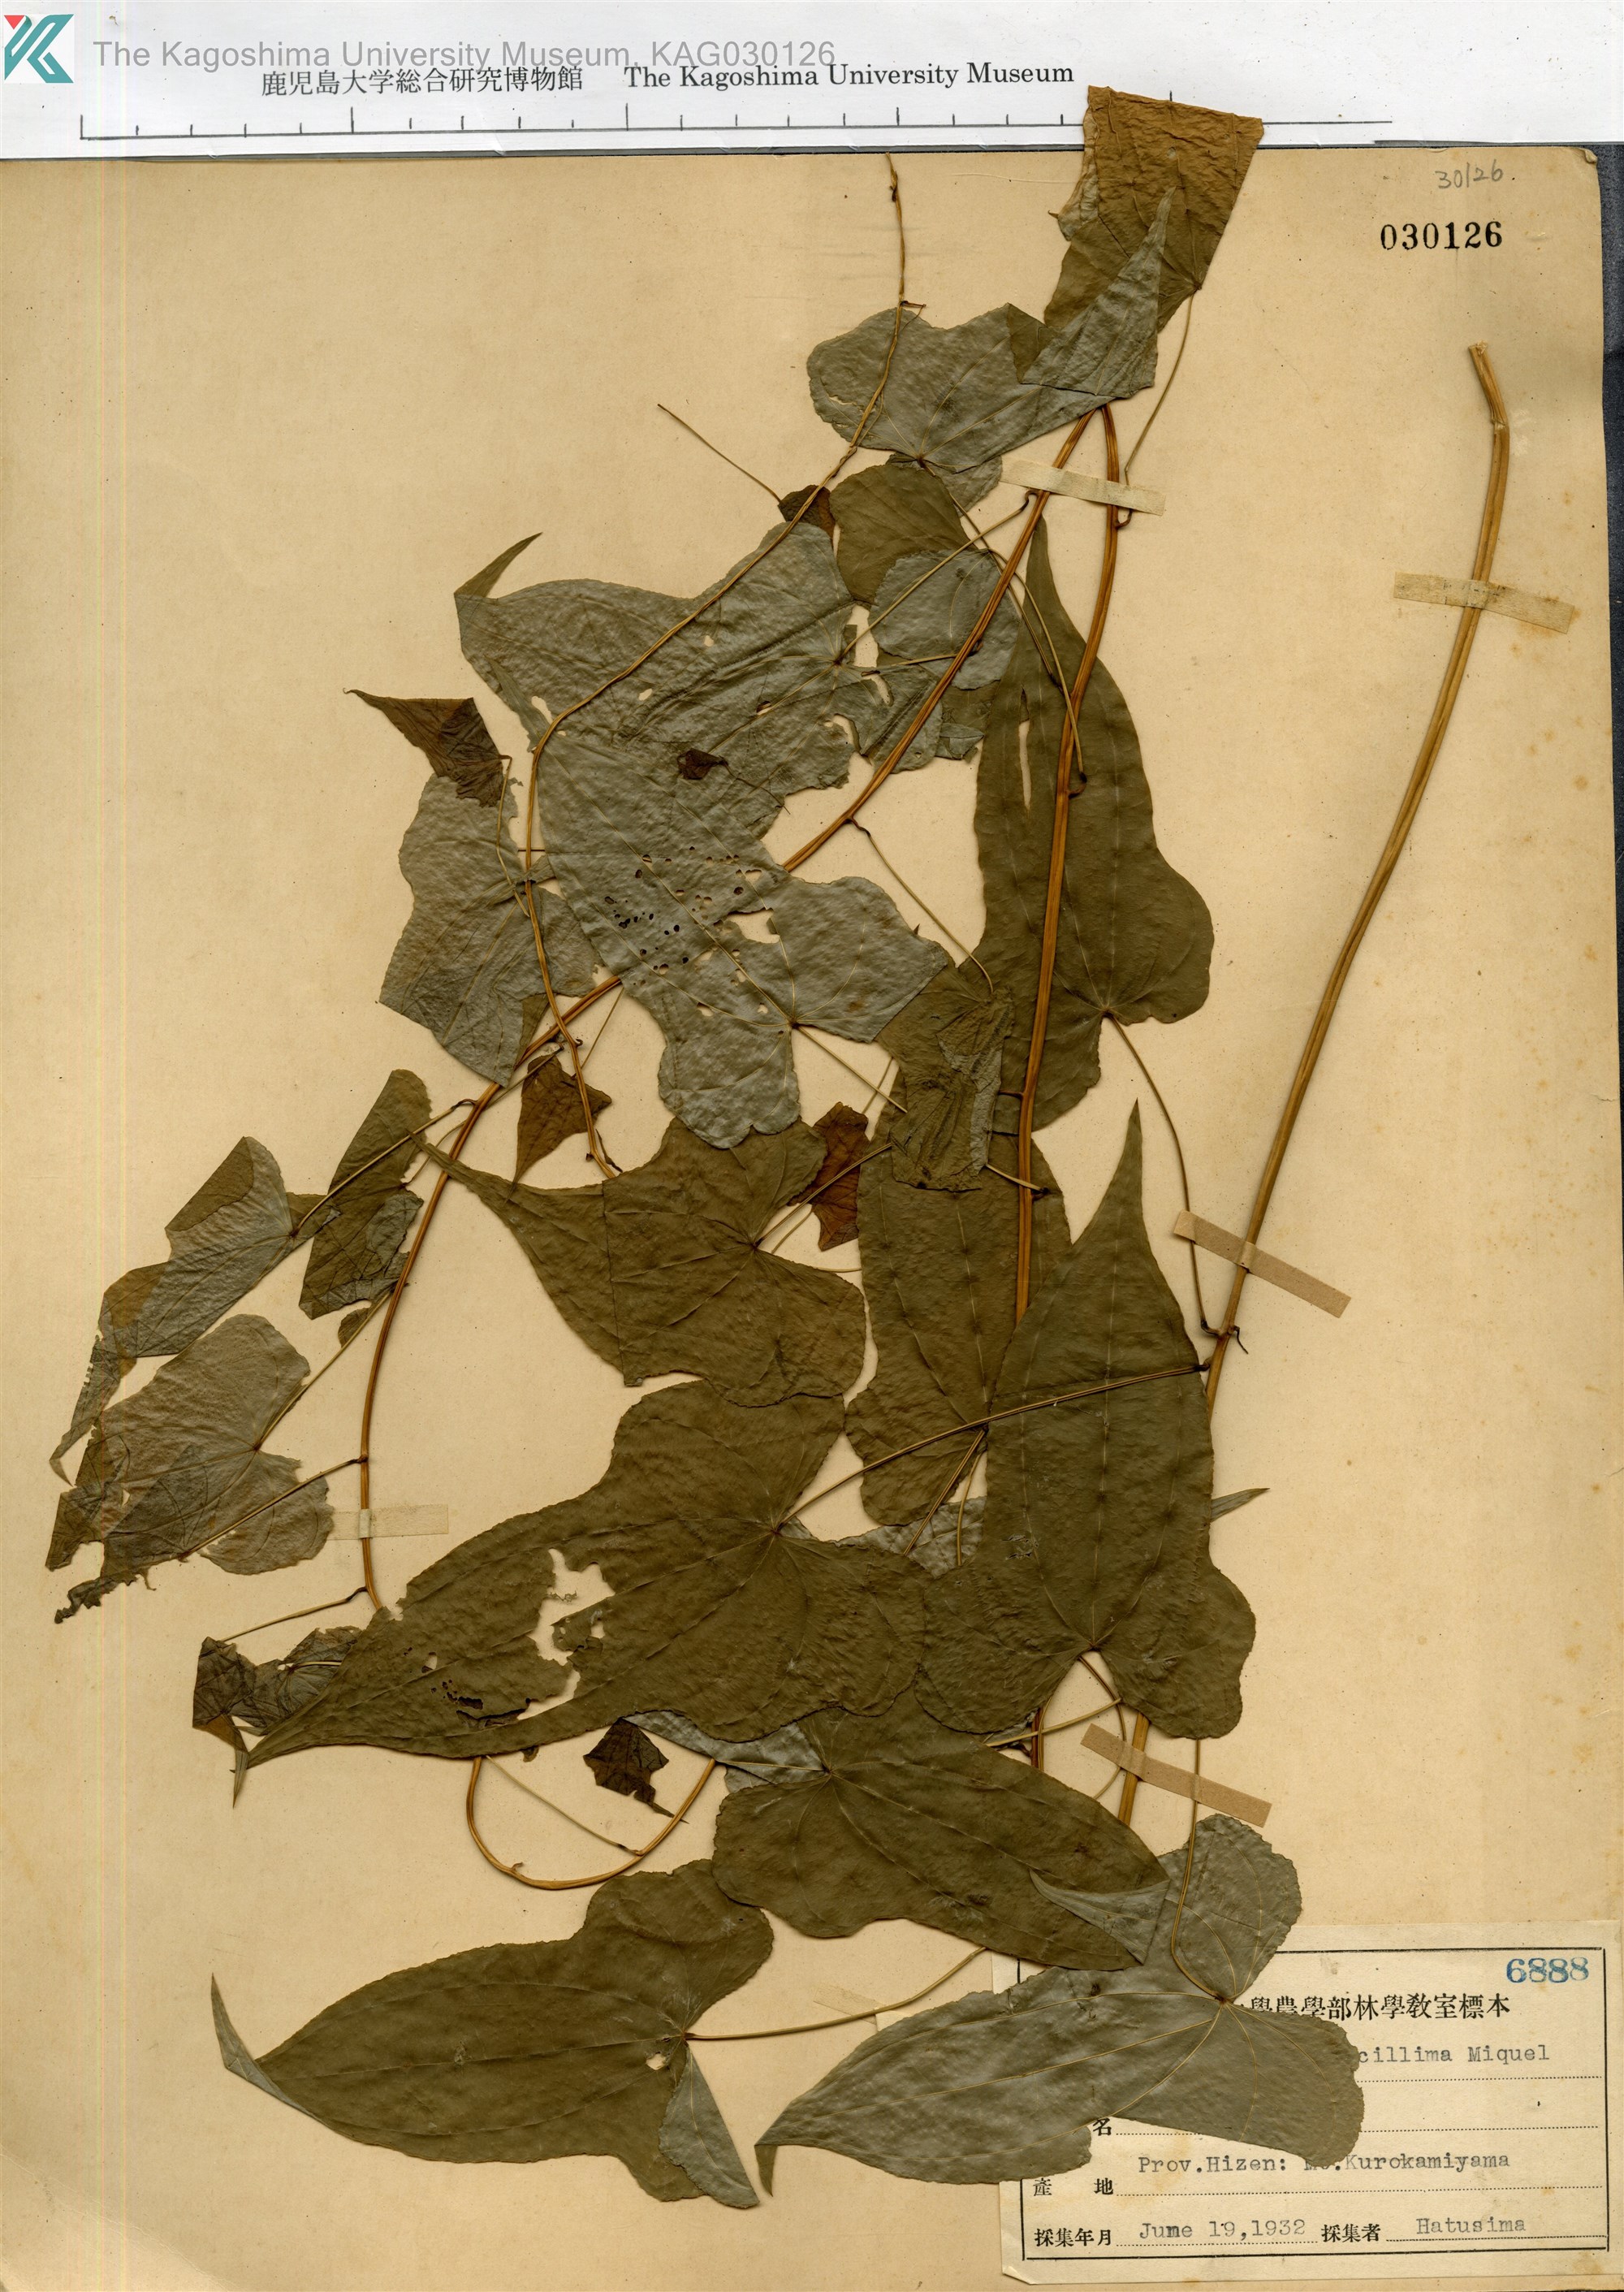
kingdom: Plantae
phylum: Tracheophyta
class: Liliopsida
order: Dioscoreales
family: Dioscoreaceae
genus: Dioscorea
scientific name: Dioscorea gracillima
